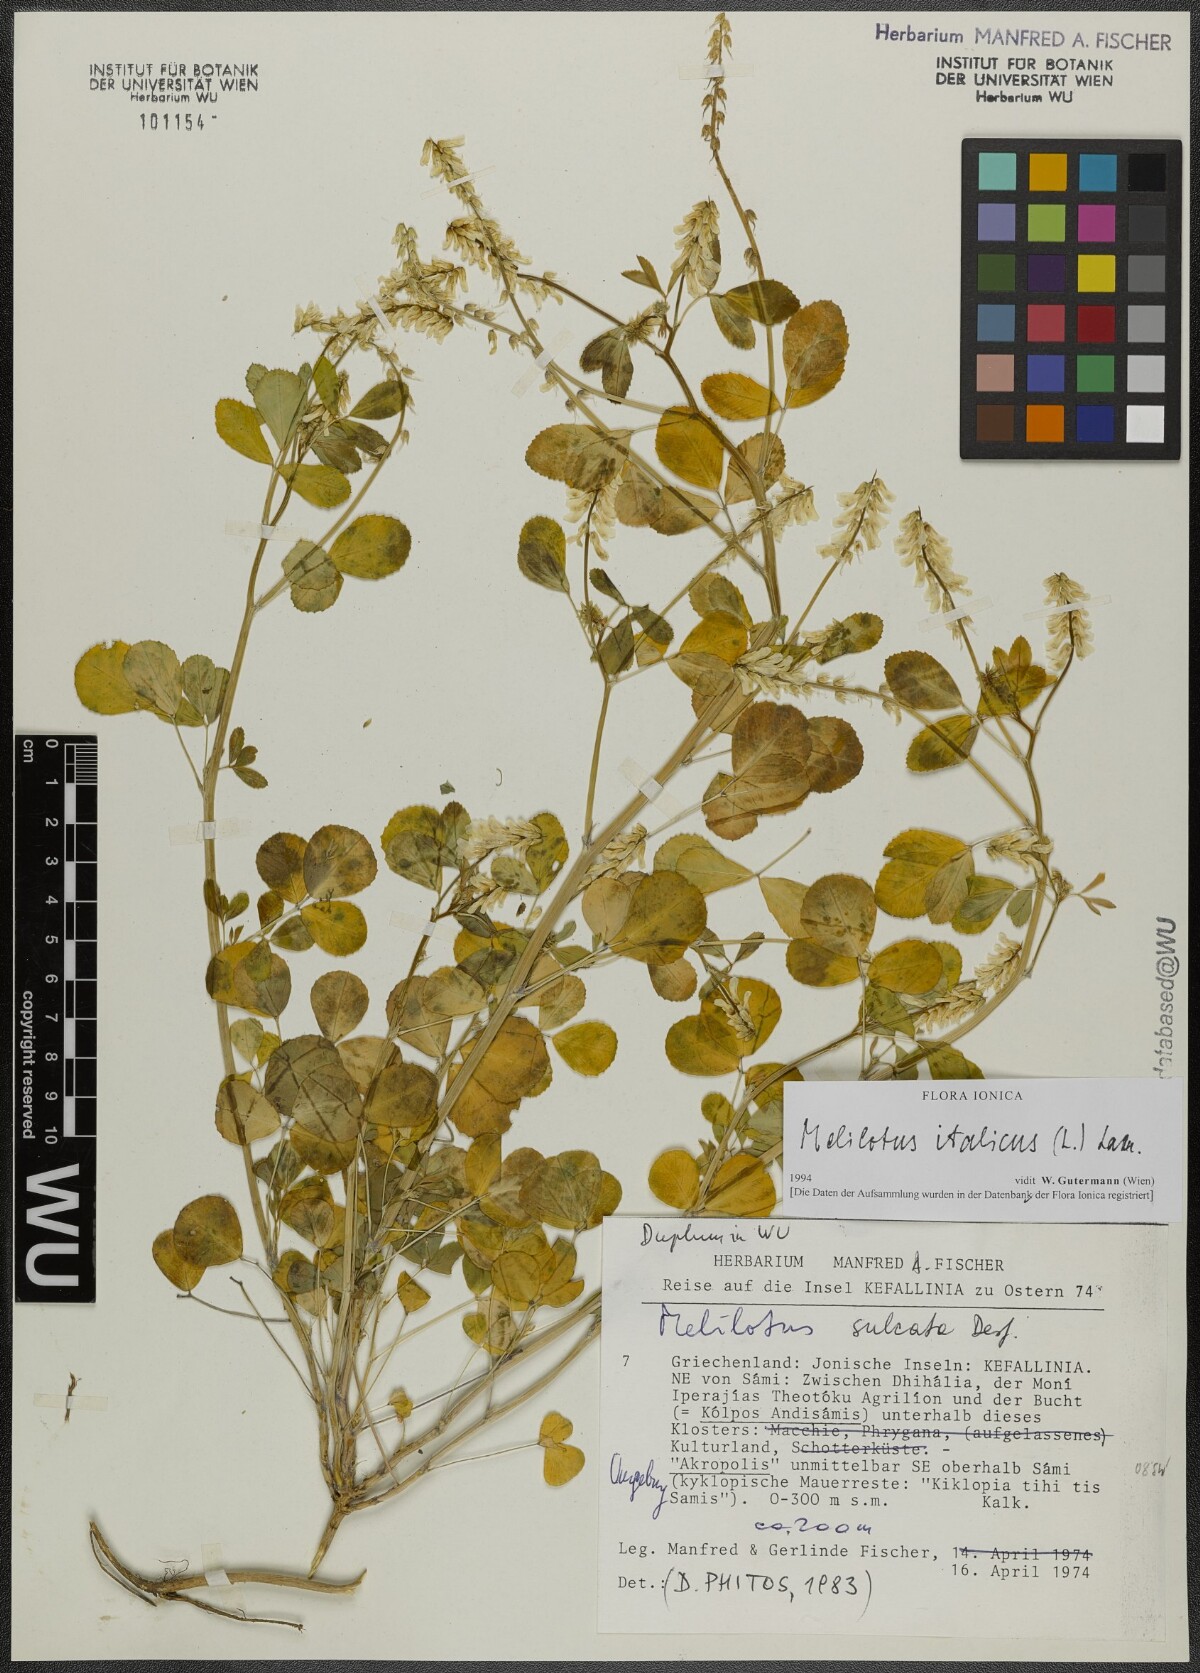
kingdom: Plantae
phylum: Tracheophyta
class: Magnoliopsida
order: Fabales
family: Fabaceae
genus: Melilotus
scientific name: Melilotus italicus
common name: Italian melilot
